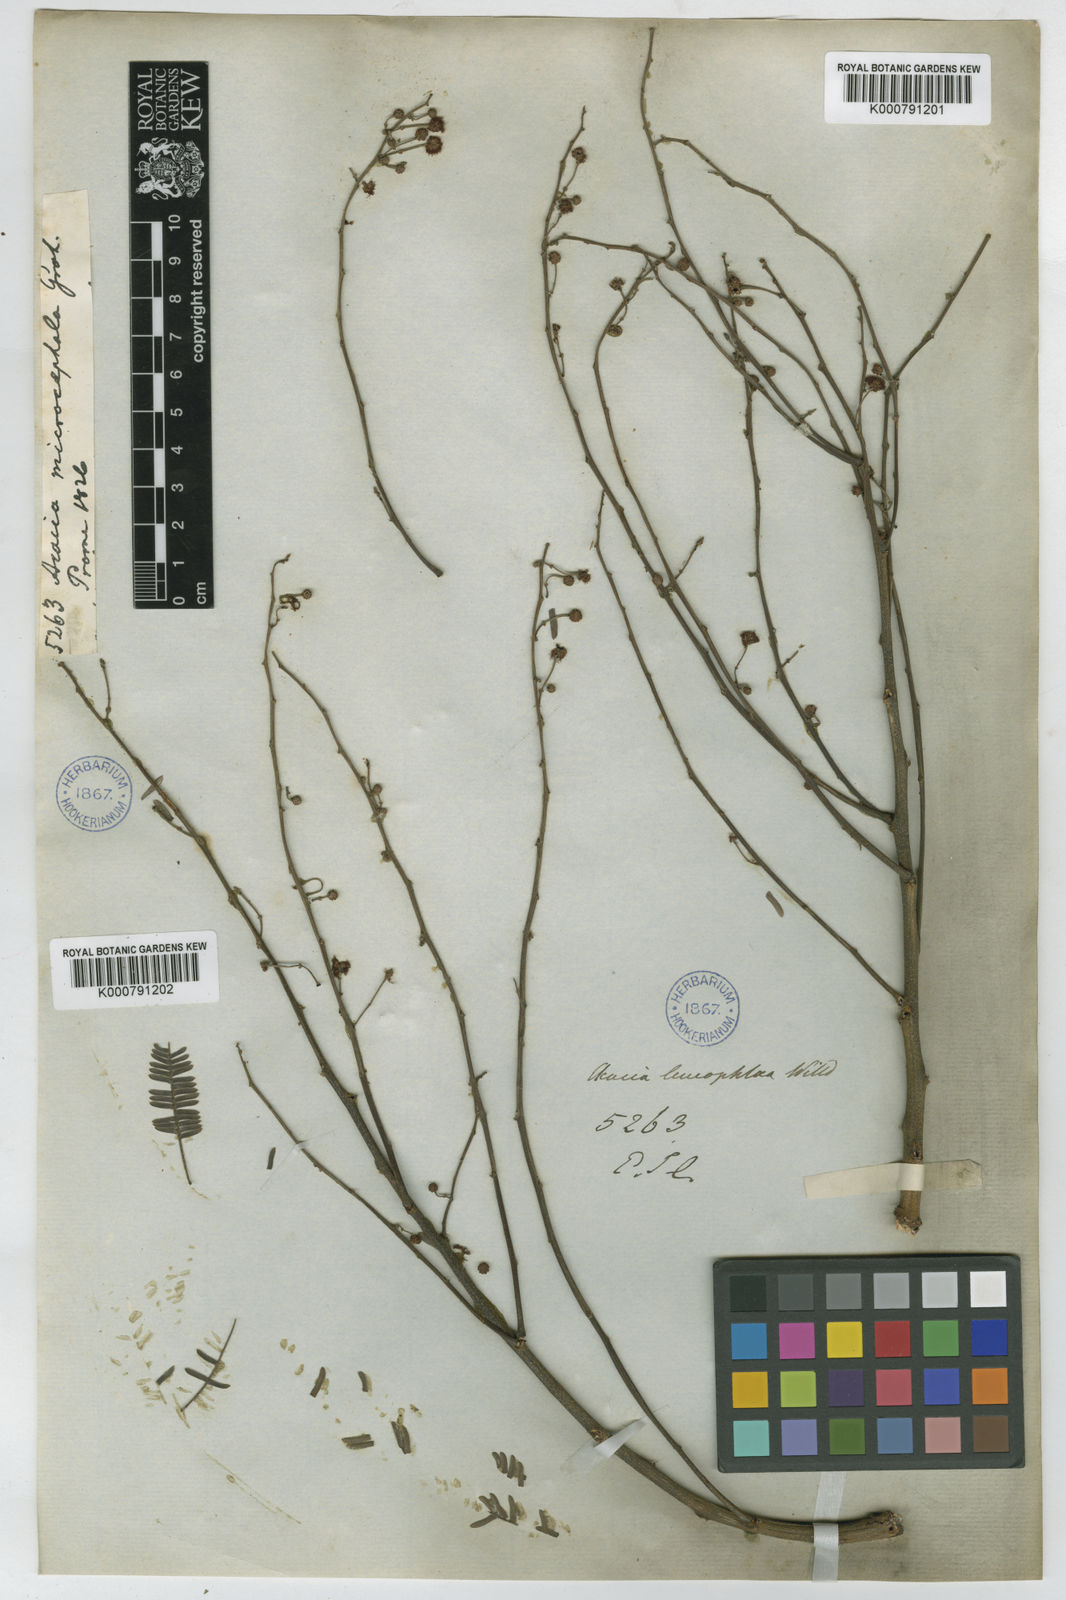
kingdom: Plantae
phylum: Tracheophyta
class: Magnoliopsida
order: Fabales
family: Fabaceae
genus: Acacia
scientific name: Acacia
